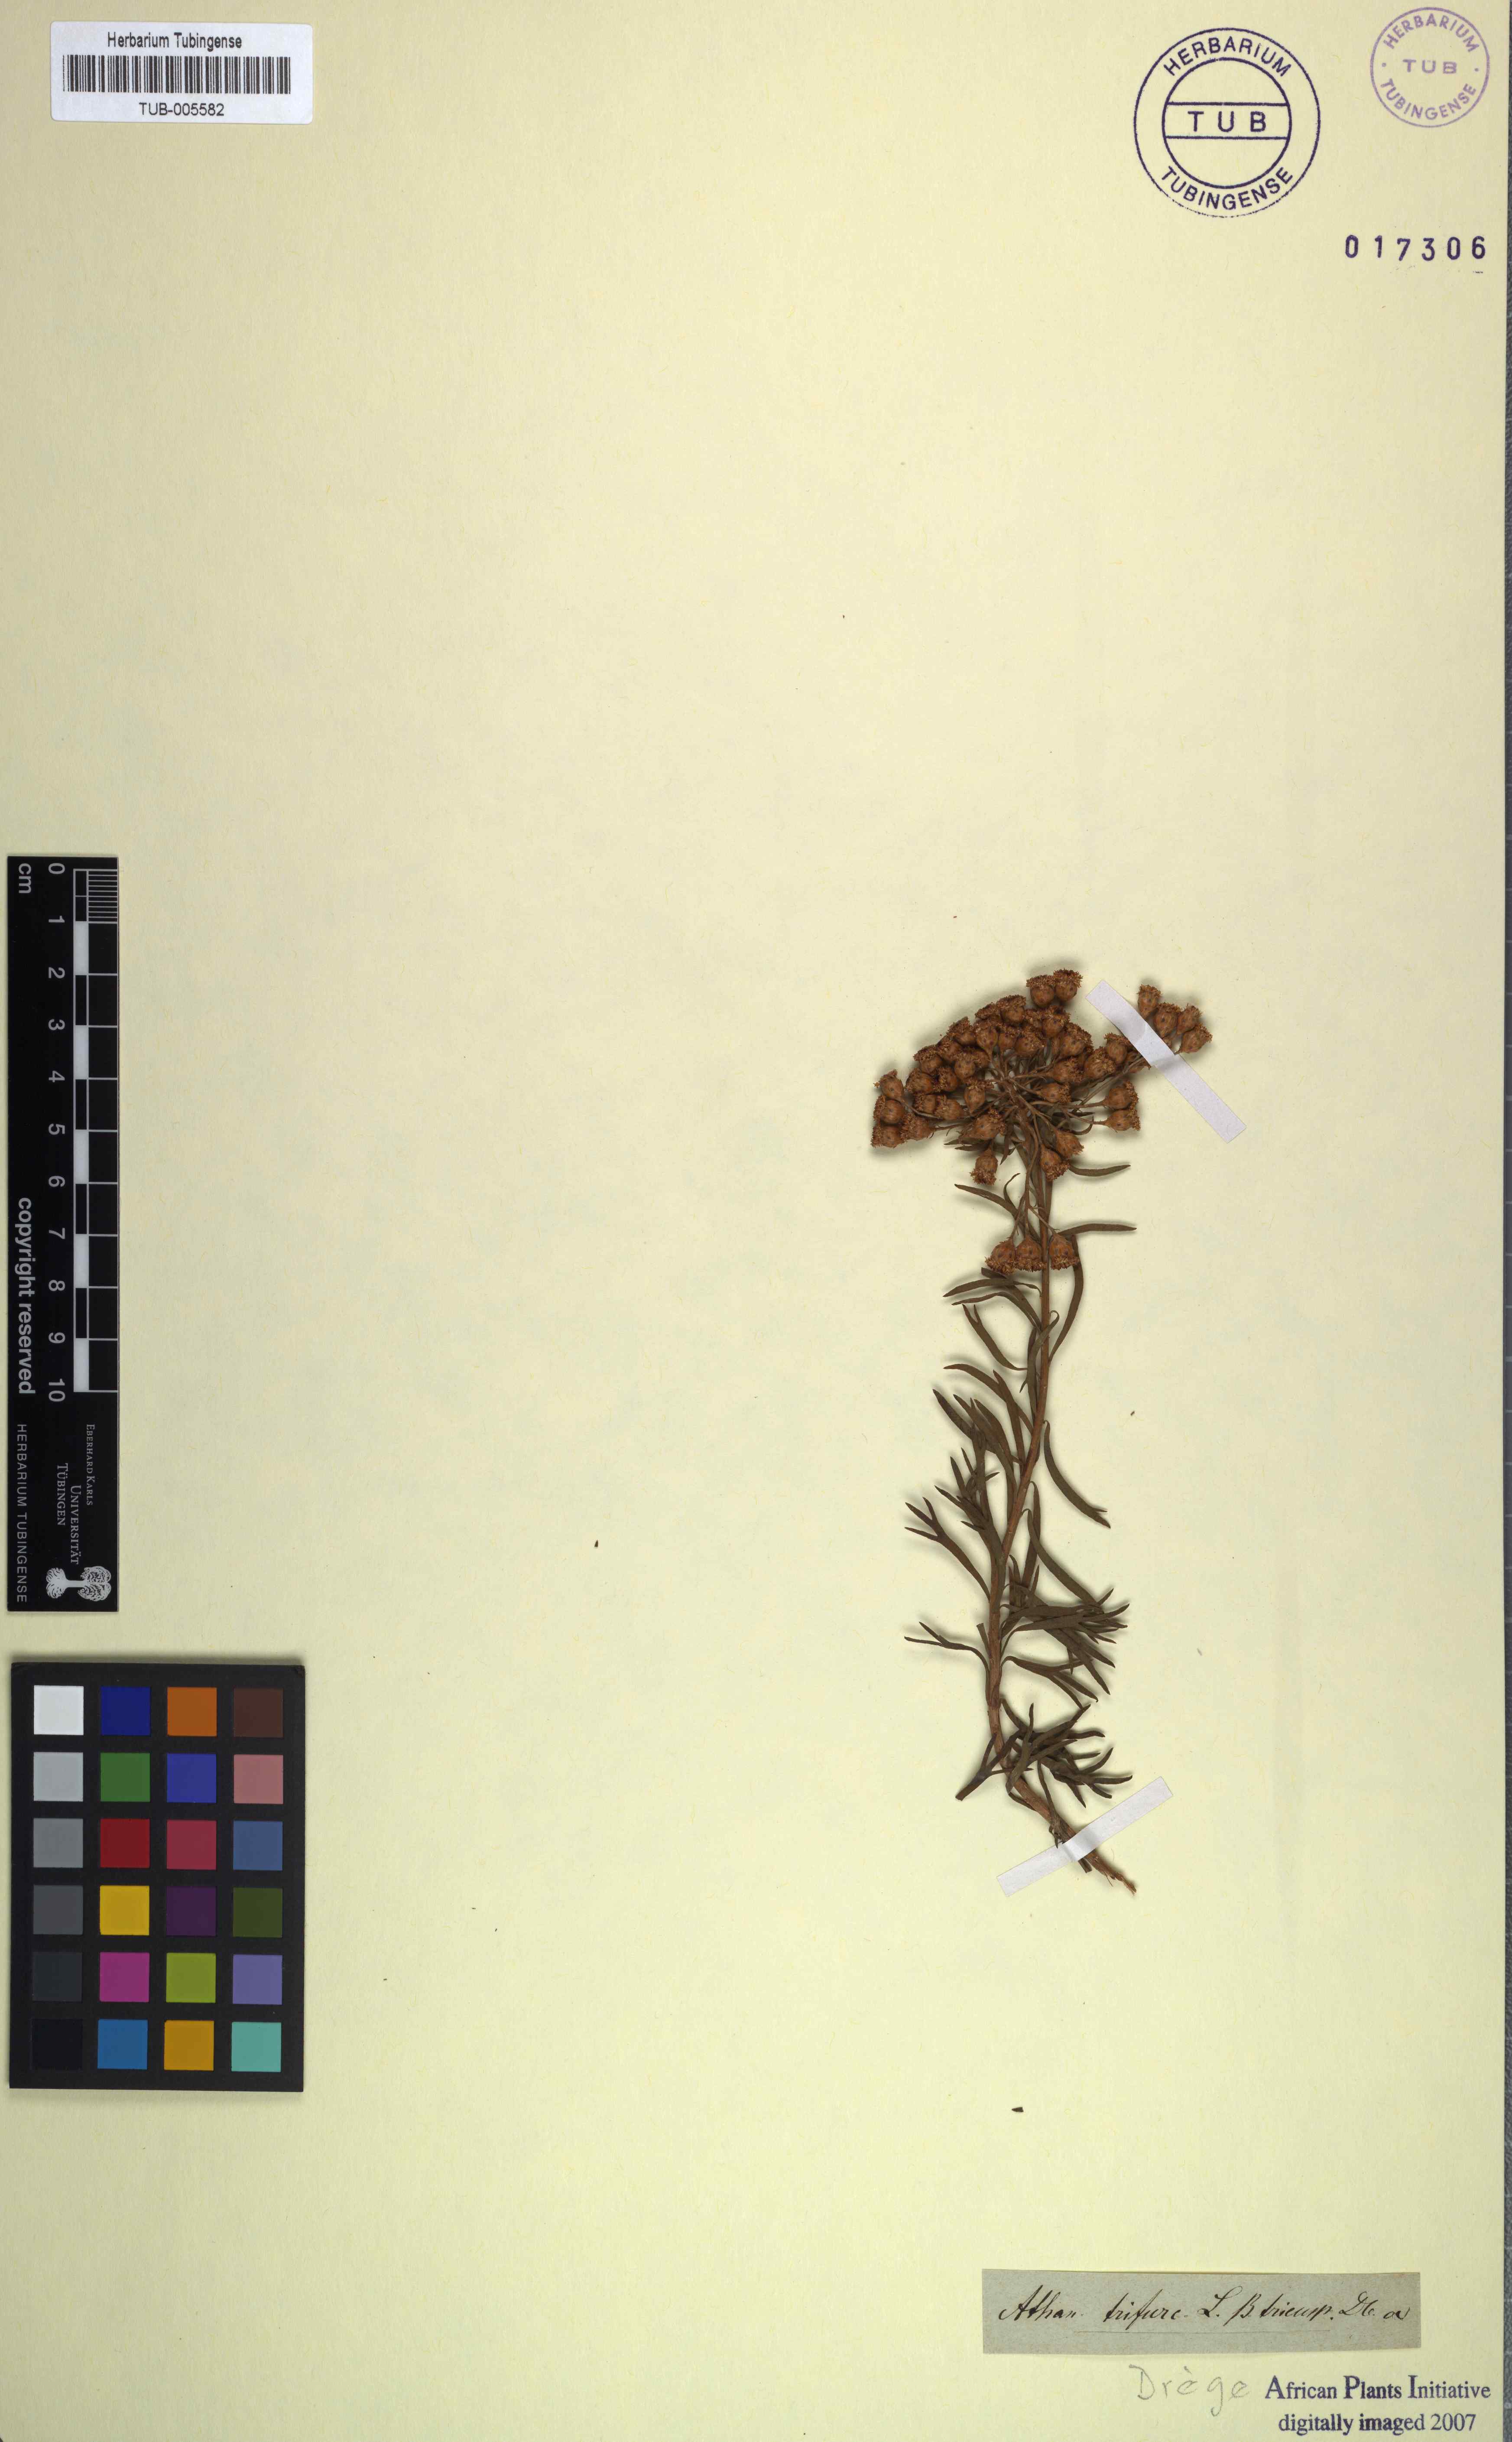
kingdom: Plantae
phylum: Tracheophyta
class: Magnoliopsida
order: Asterales
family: Asteraceae
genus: Athanasia
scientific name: Athanasia trifurcata
